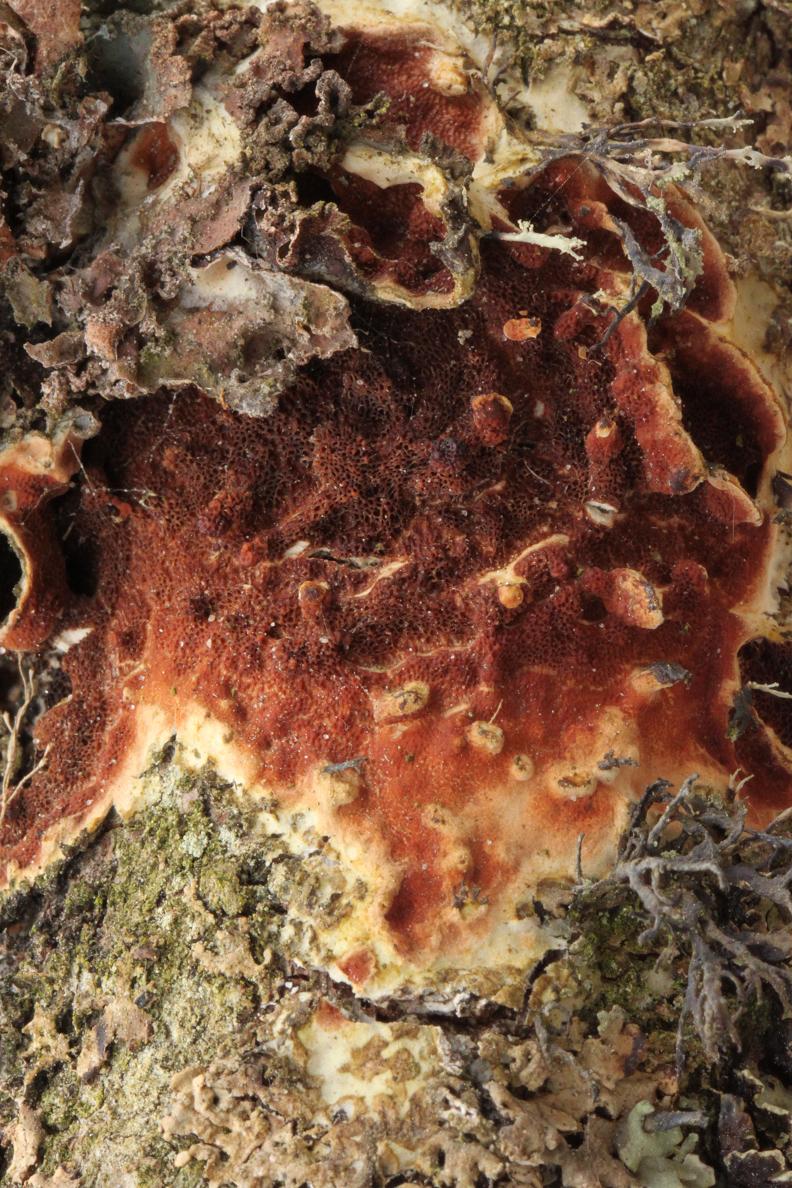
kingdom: Fungi
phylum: Basidiomycota
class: Agaricomycetes
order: Polyporales
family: Irpicaceae
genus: Meruliopsis
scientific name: Meruliopsis taxicola
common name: purpurbrun foldporesvamp
